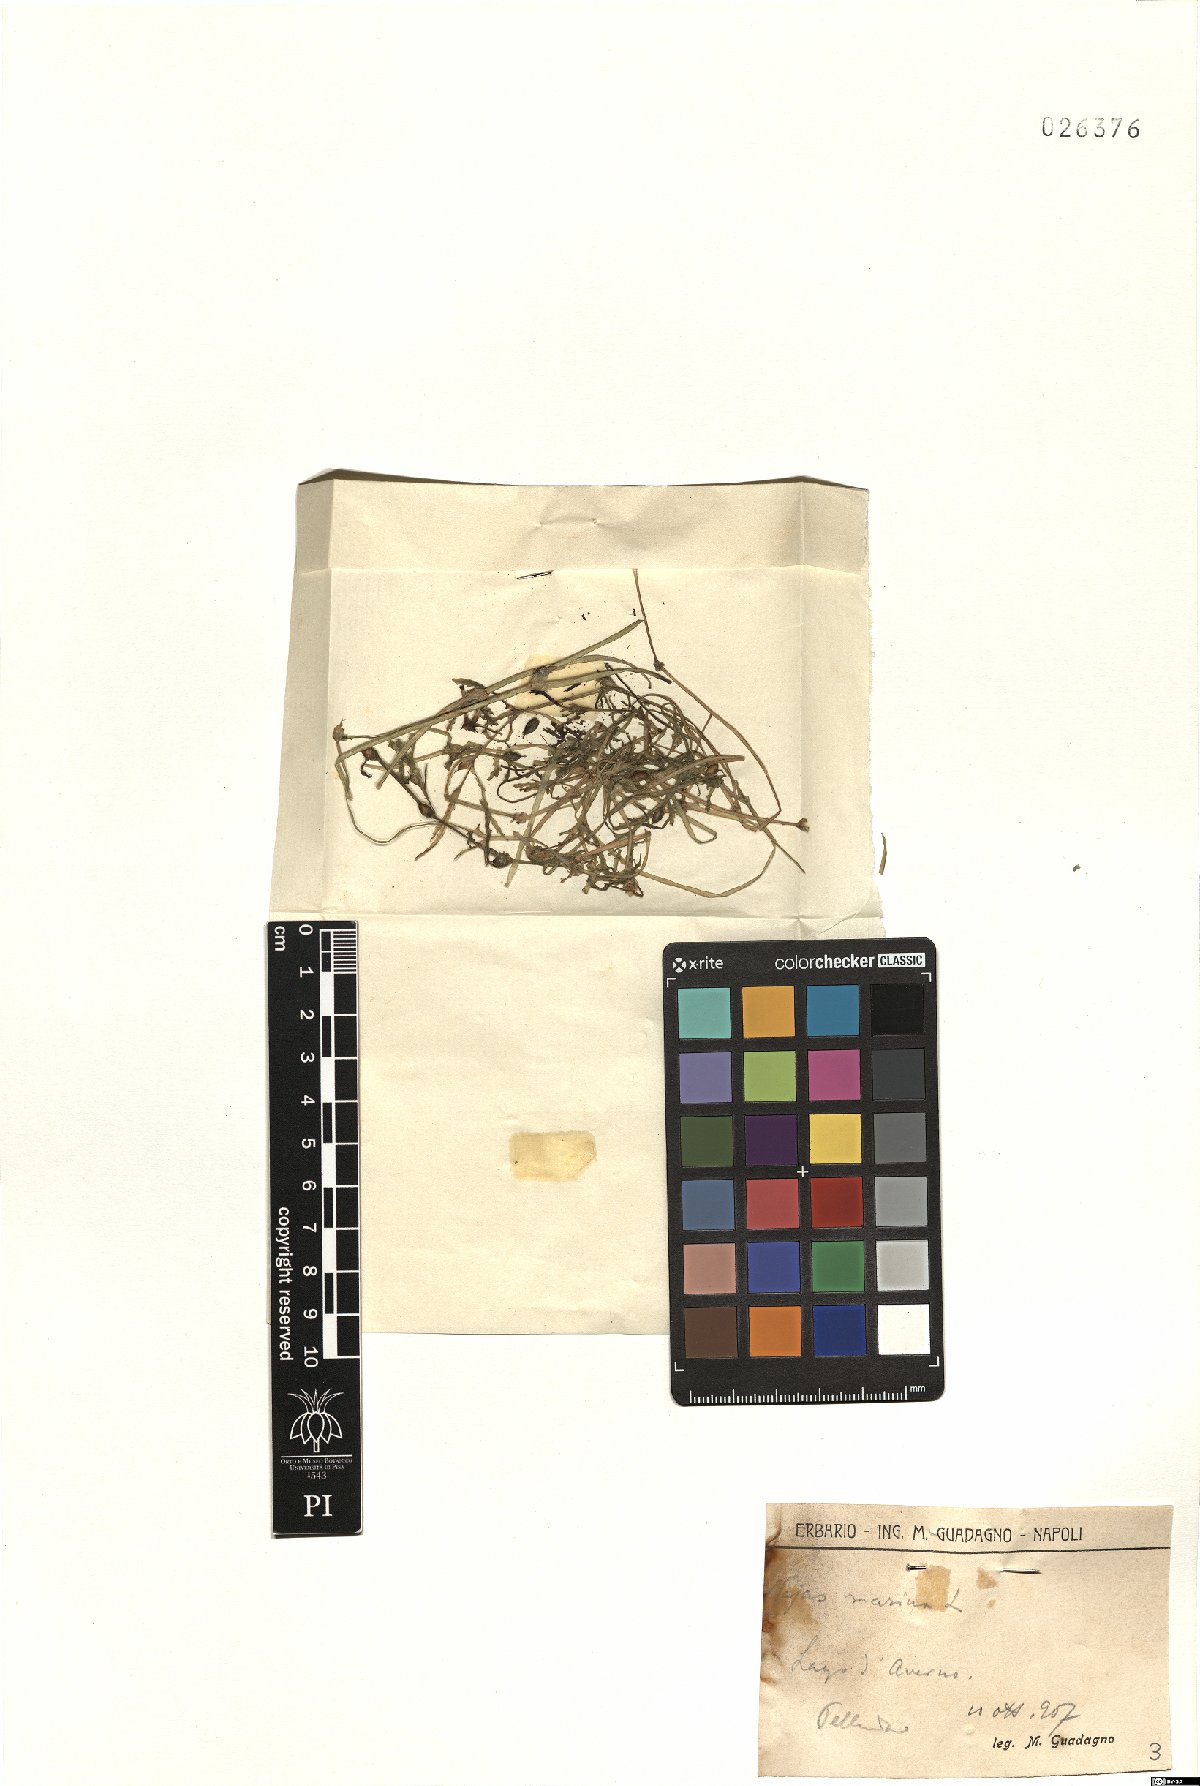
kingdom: Plantae
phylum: Tracheophyta
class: Liliopsida
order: Alismatales
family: Hydrocharitaceae
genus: Najas
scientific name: Najas marina
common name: Holly-leaved naiad
